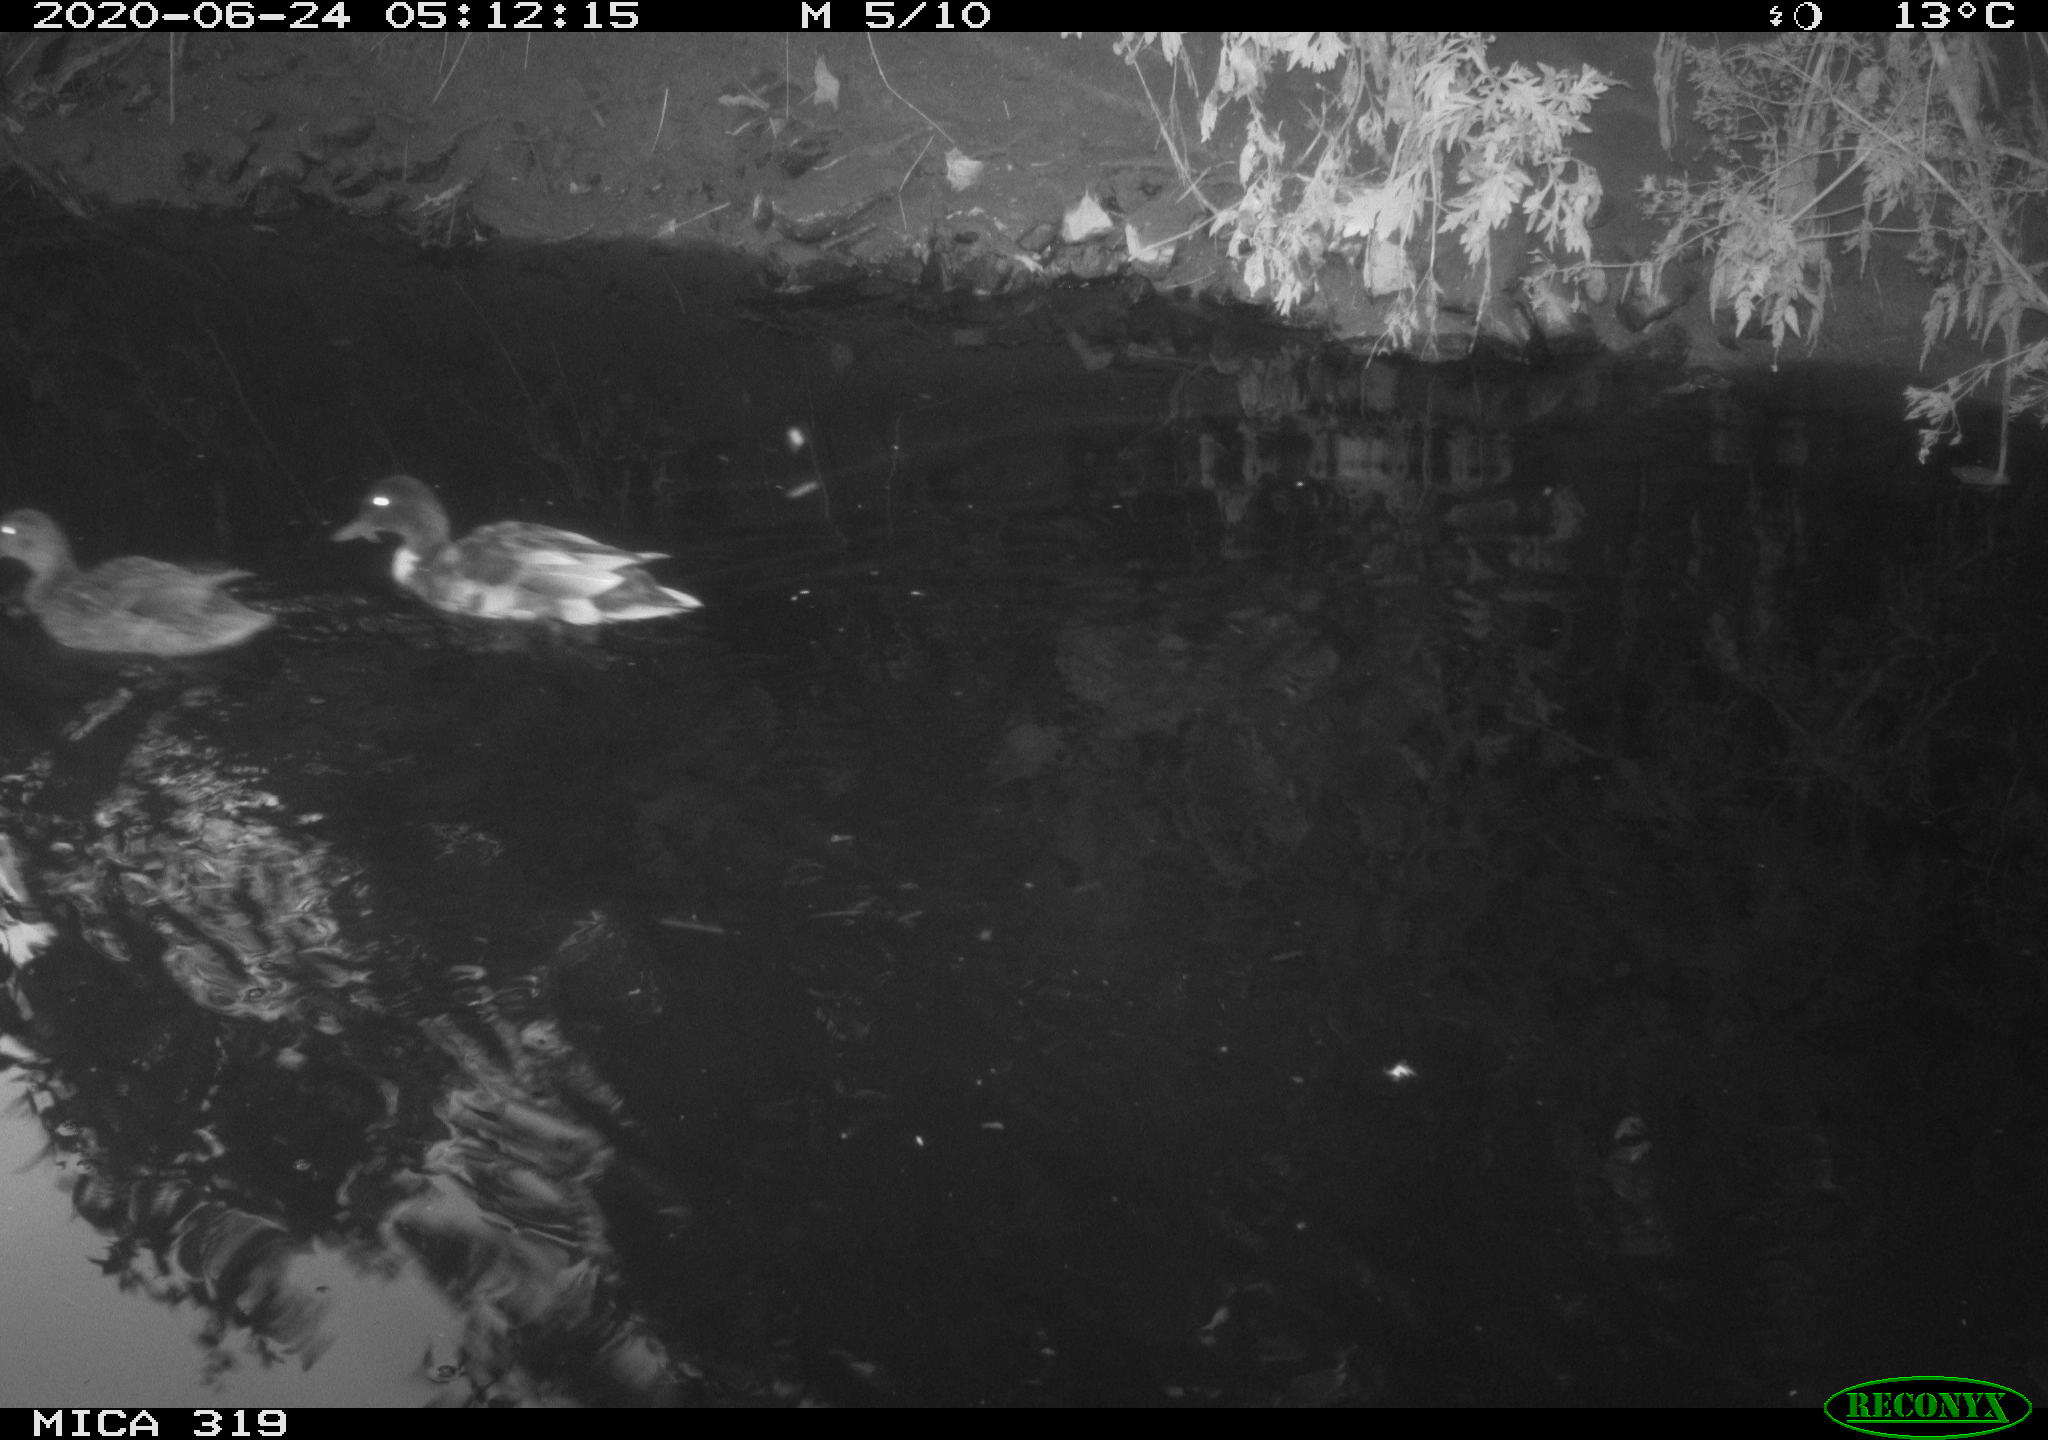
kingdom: Animalia
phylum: Chordata
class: Aves
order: Anseriformes
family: Anatidae
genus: Anas
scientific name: Anas platyrhynchos
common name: Mallard
